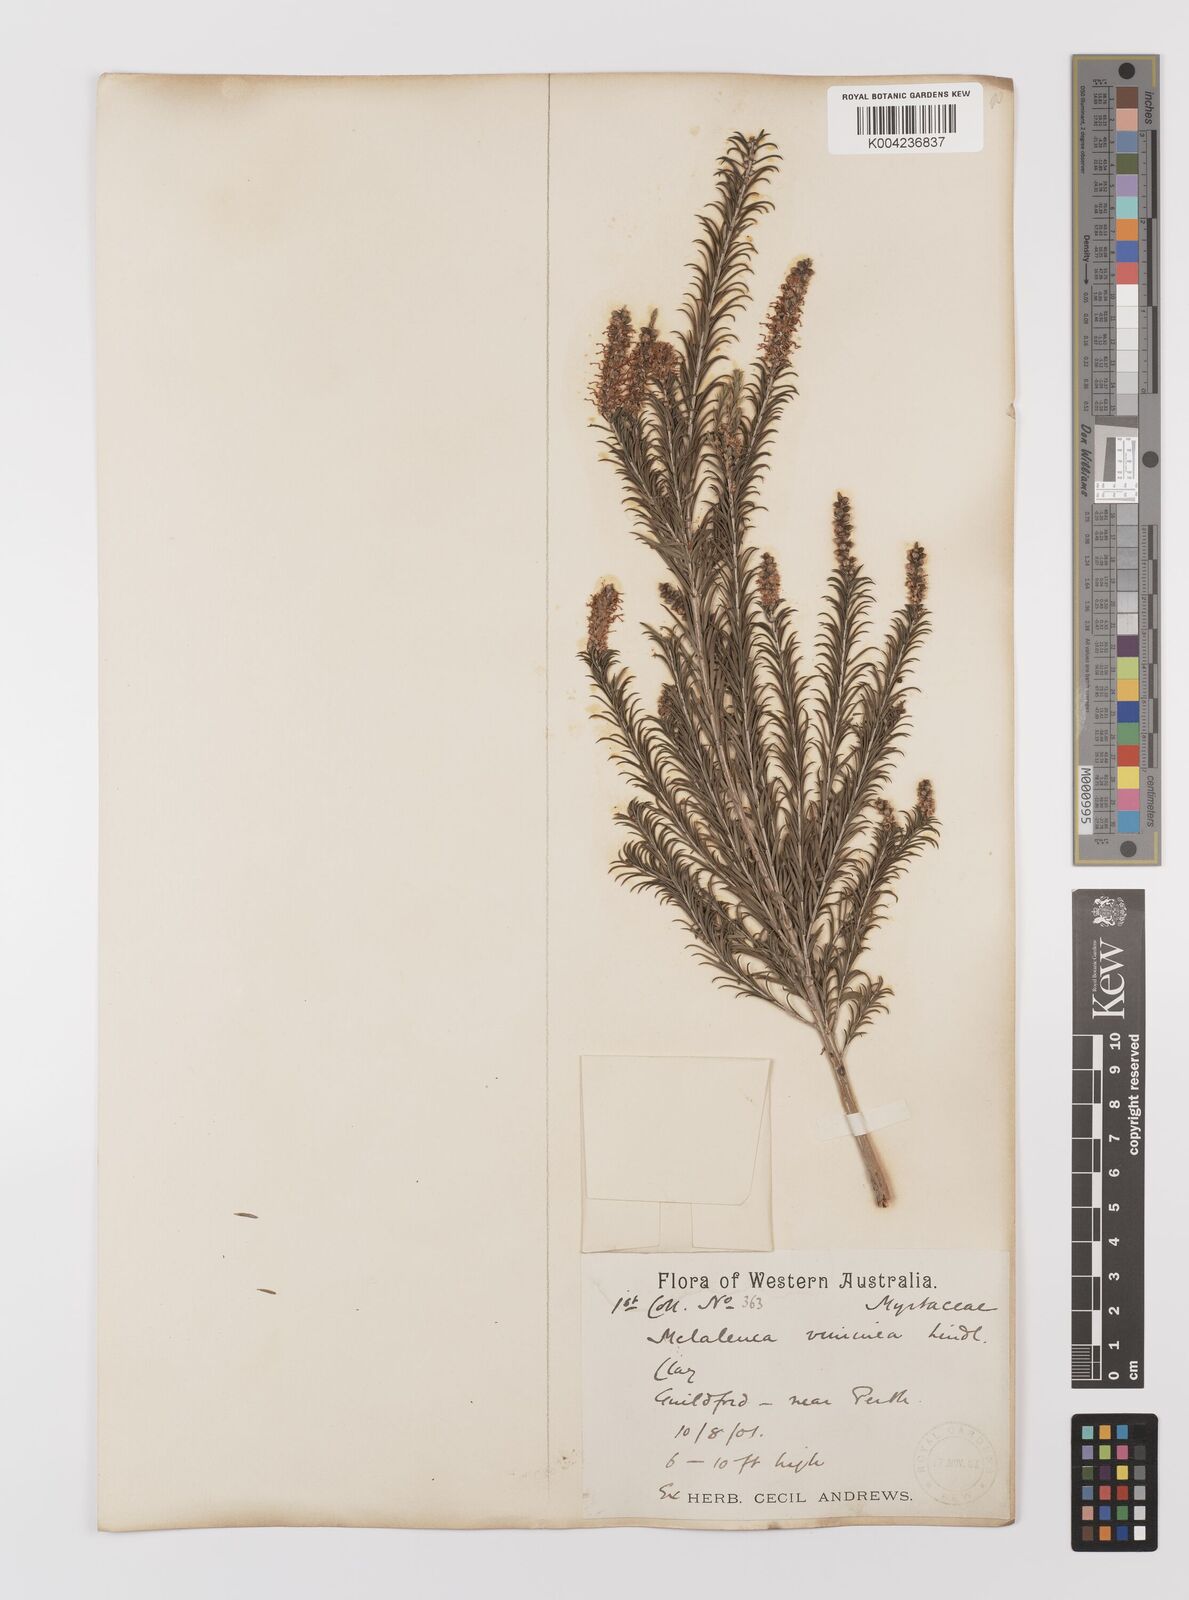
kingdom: Plantae
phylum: Tracheophyta
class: Magnoliopsida
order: Myrtales
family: Myrtaceae
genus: Melaleuca
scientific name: Melaleuca viminea
